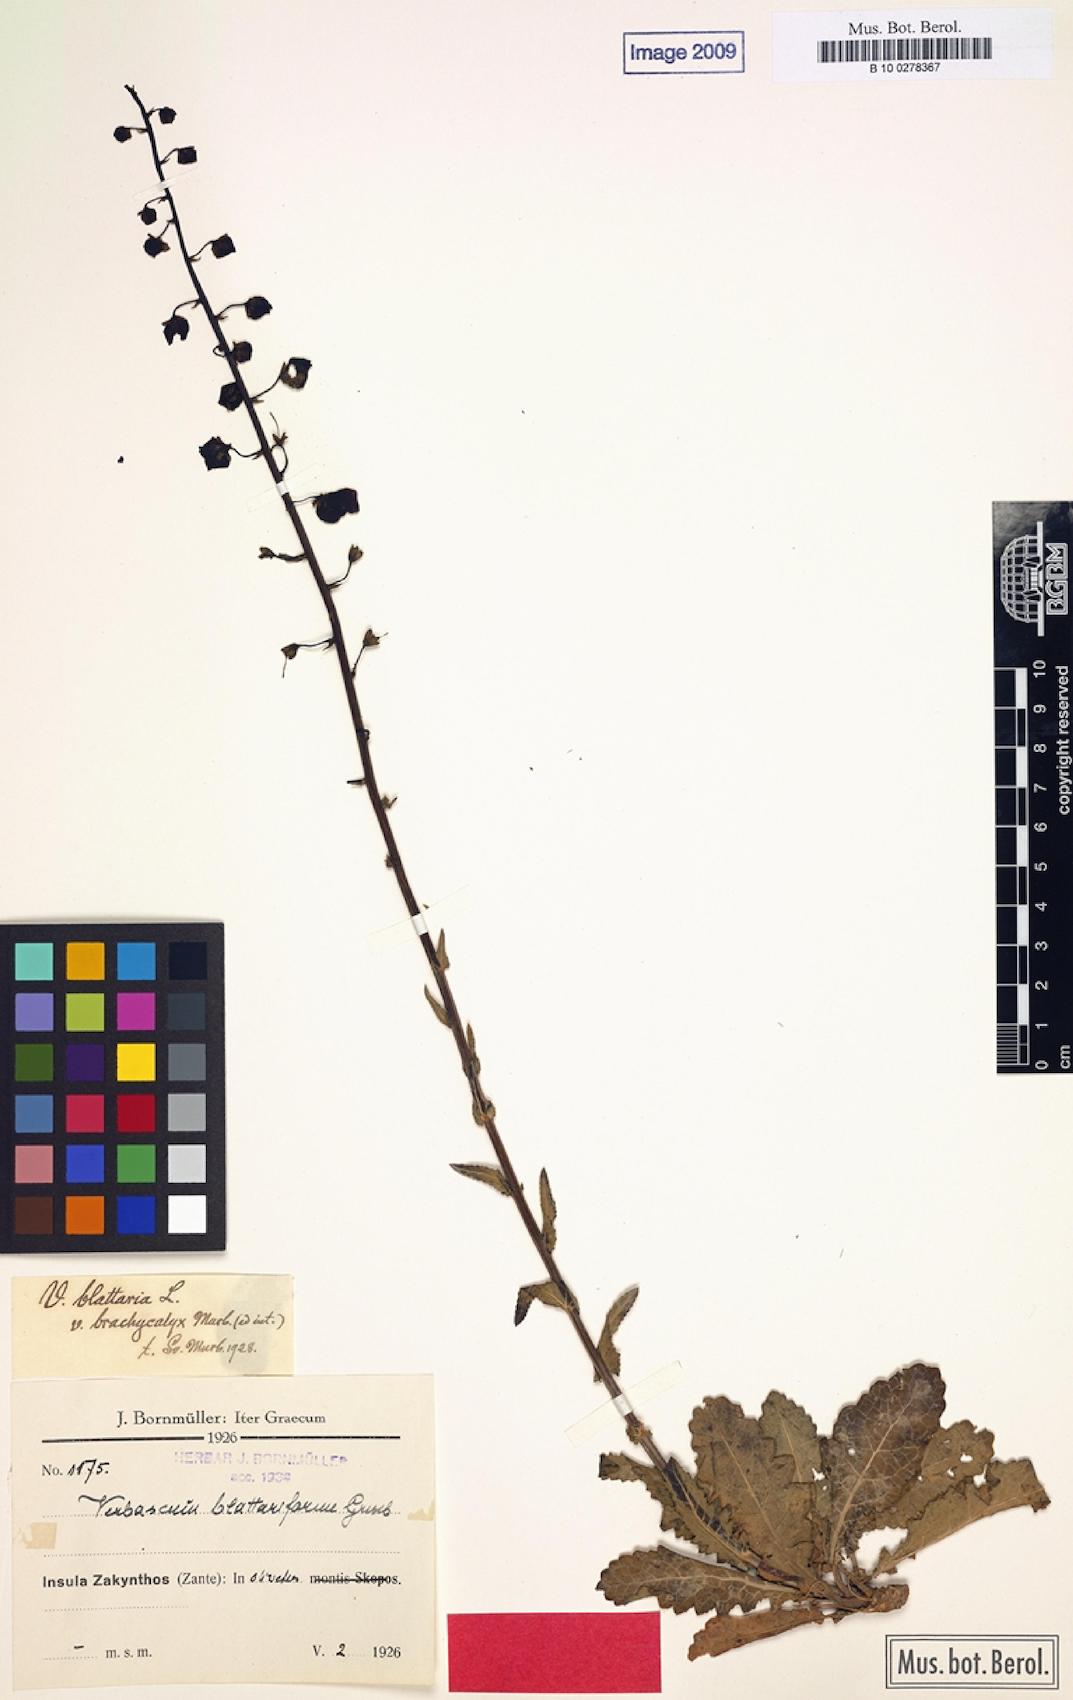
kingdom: Plantae
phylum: Tracheophyta
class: Magnoliopsida
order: Lamiales
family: Scrophulariaceae
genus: Verbascum
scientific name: Verbascum blattaria
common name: Moth mullein
